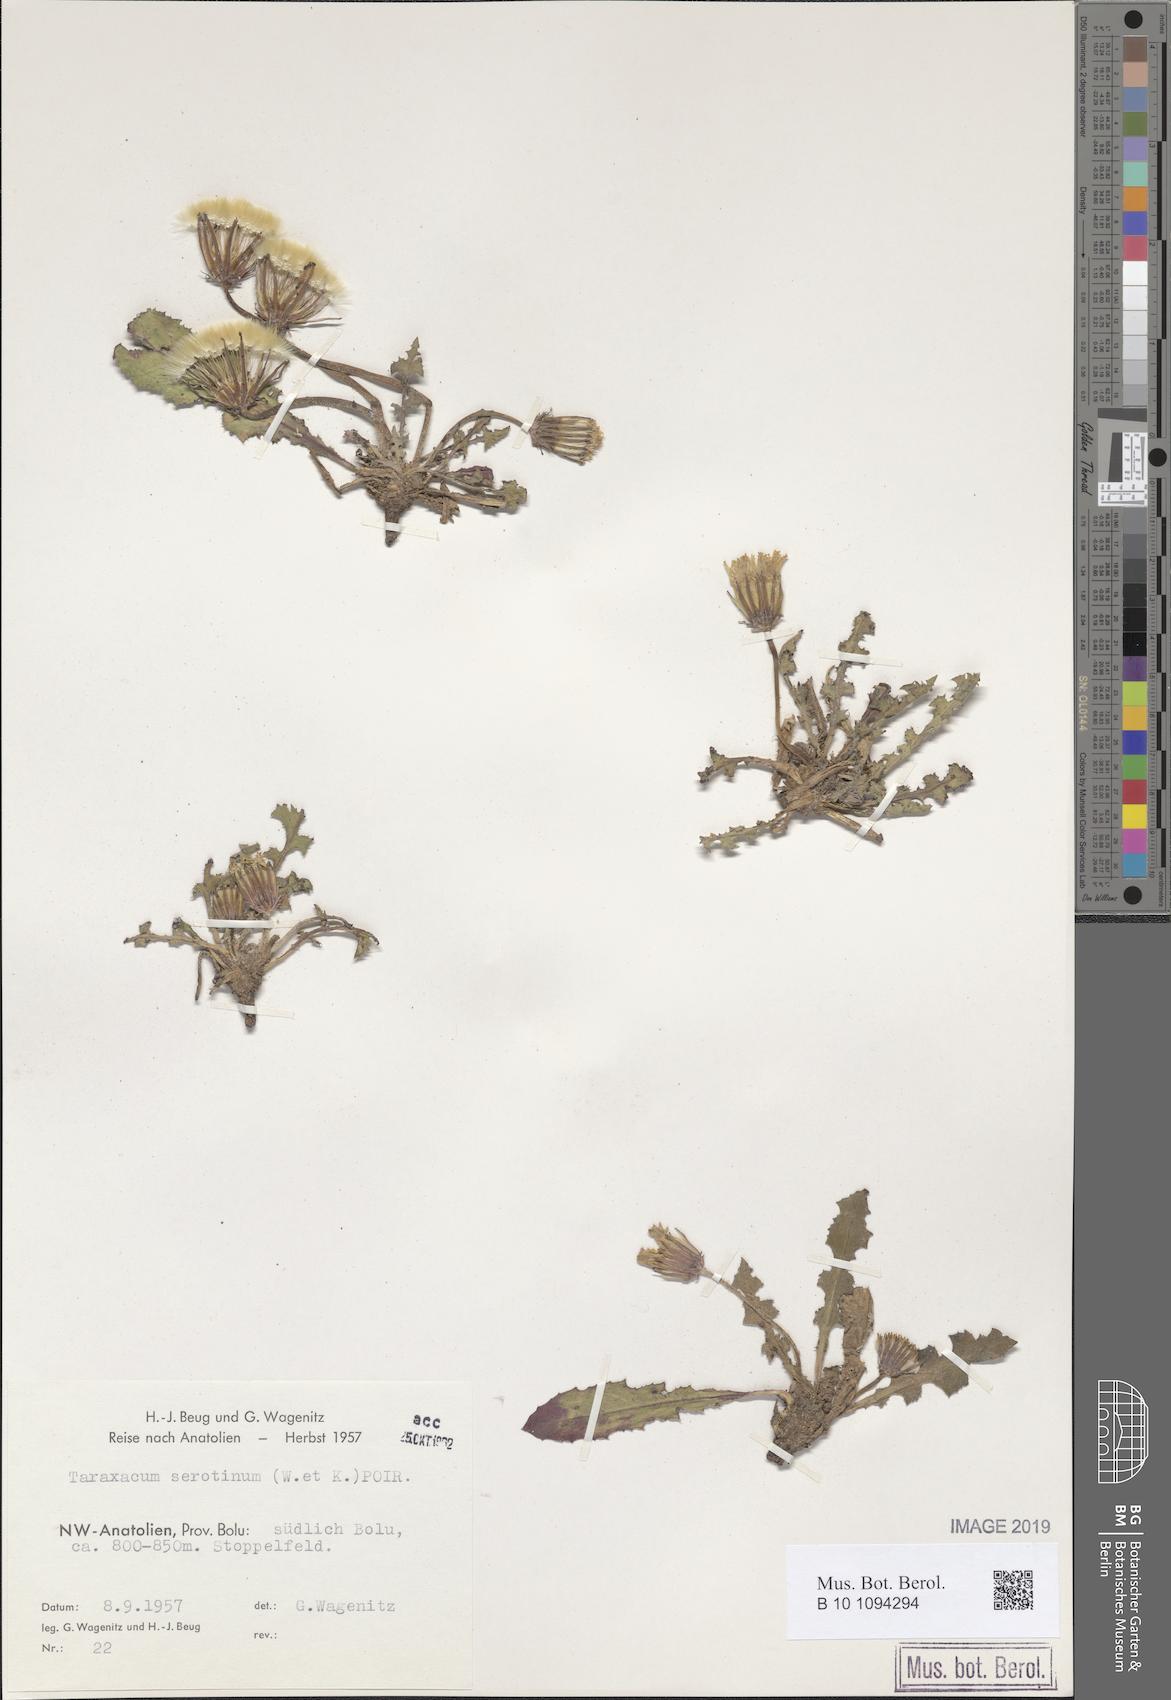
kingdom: Plantae
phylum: Tracheophyta
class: Magnoliopsida
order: Asterales
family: Asteraceae
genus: Taraxacum
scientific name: Taraxacum serotinum
